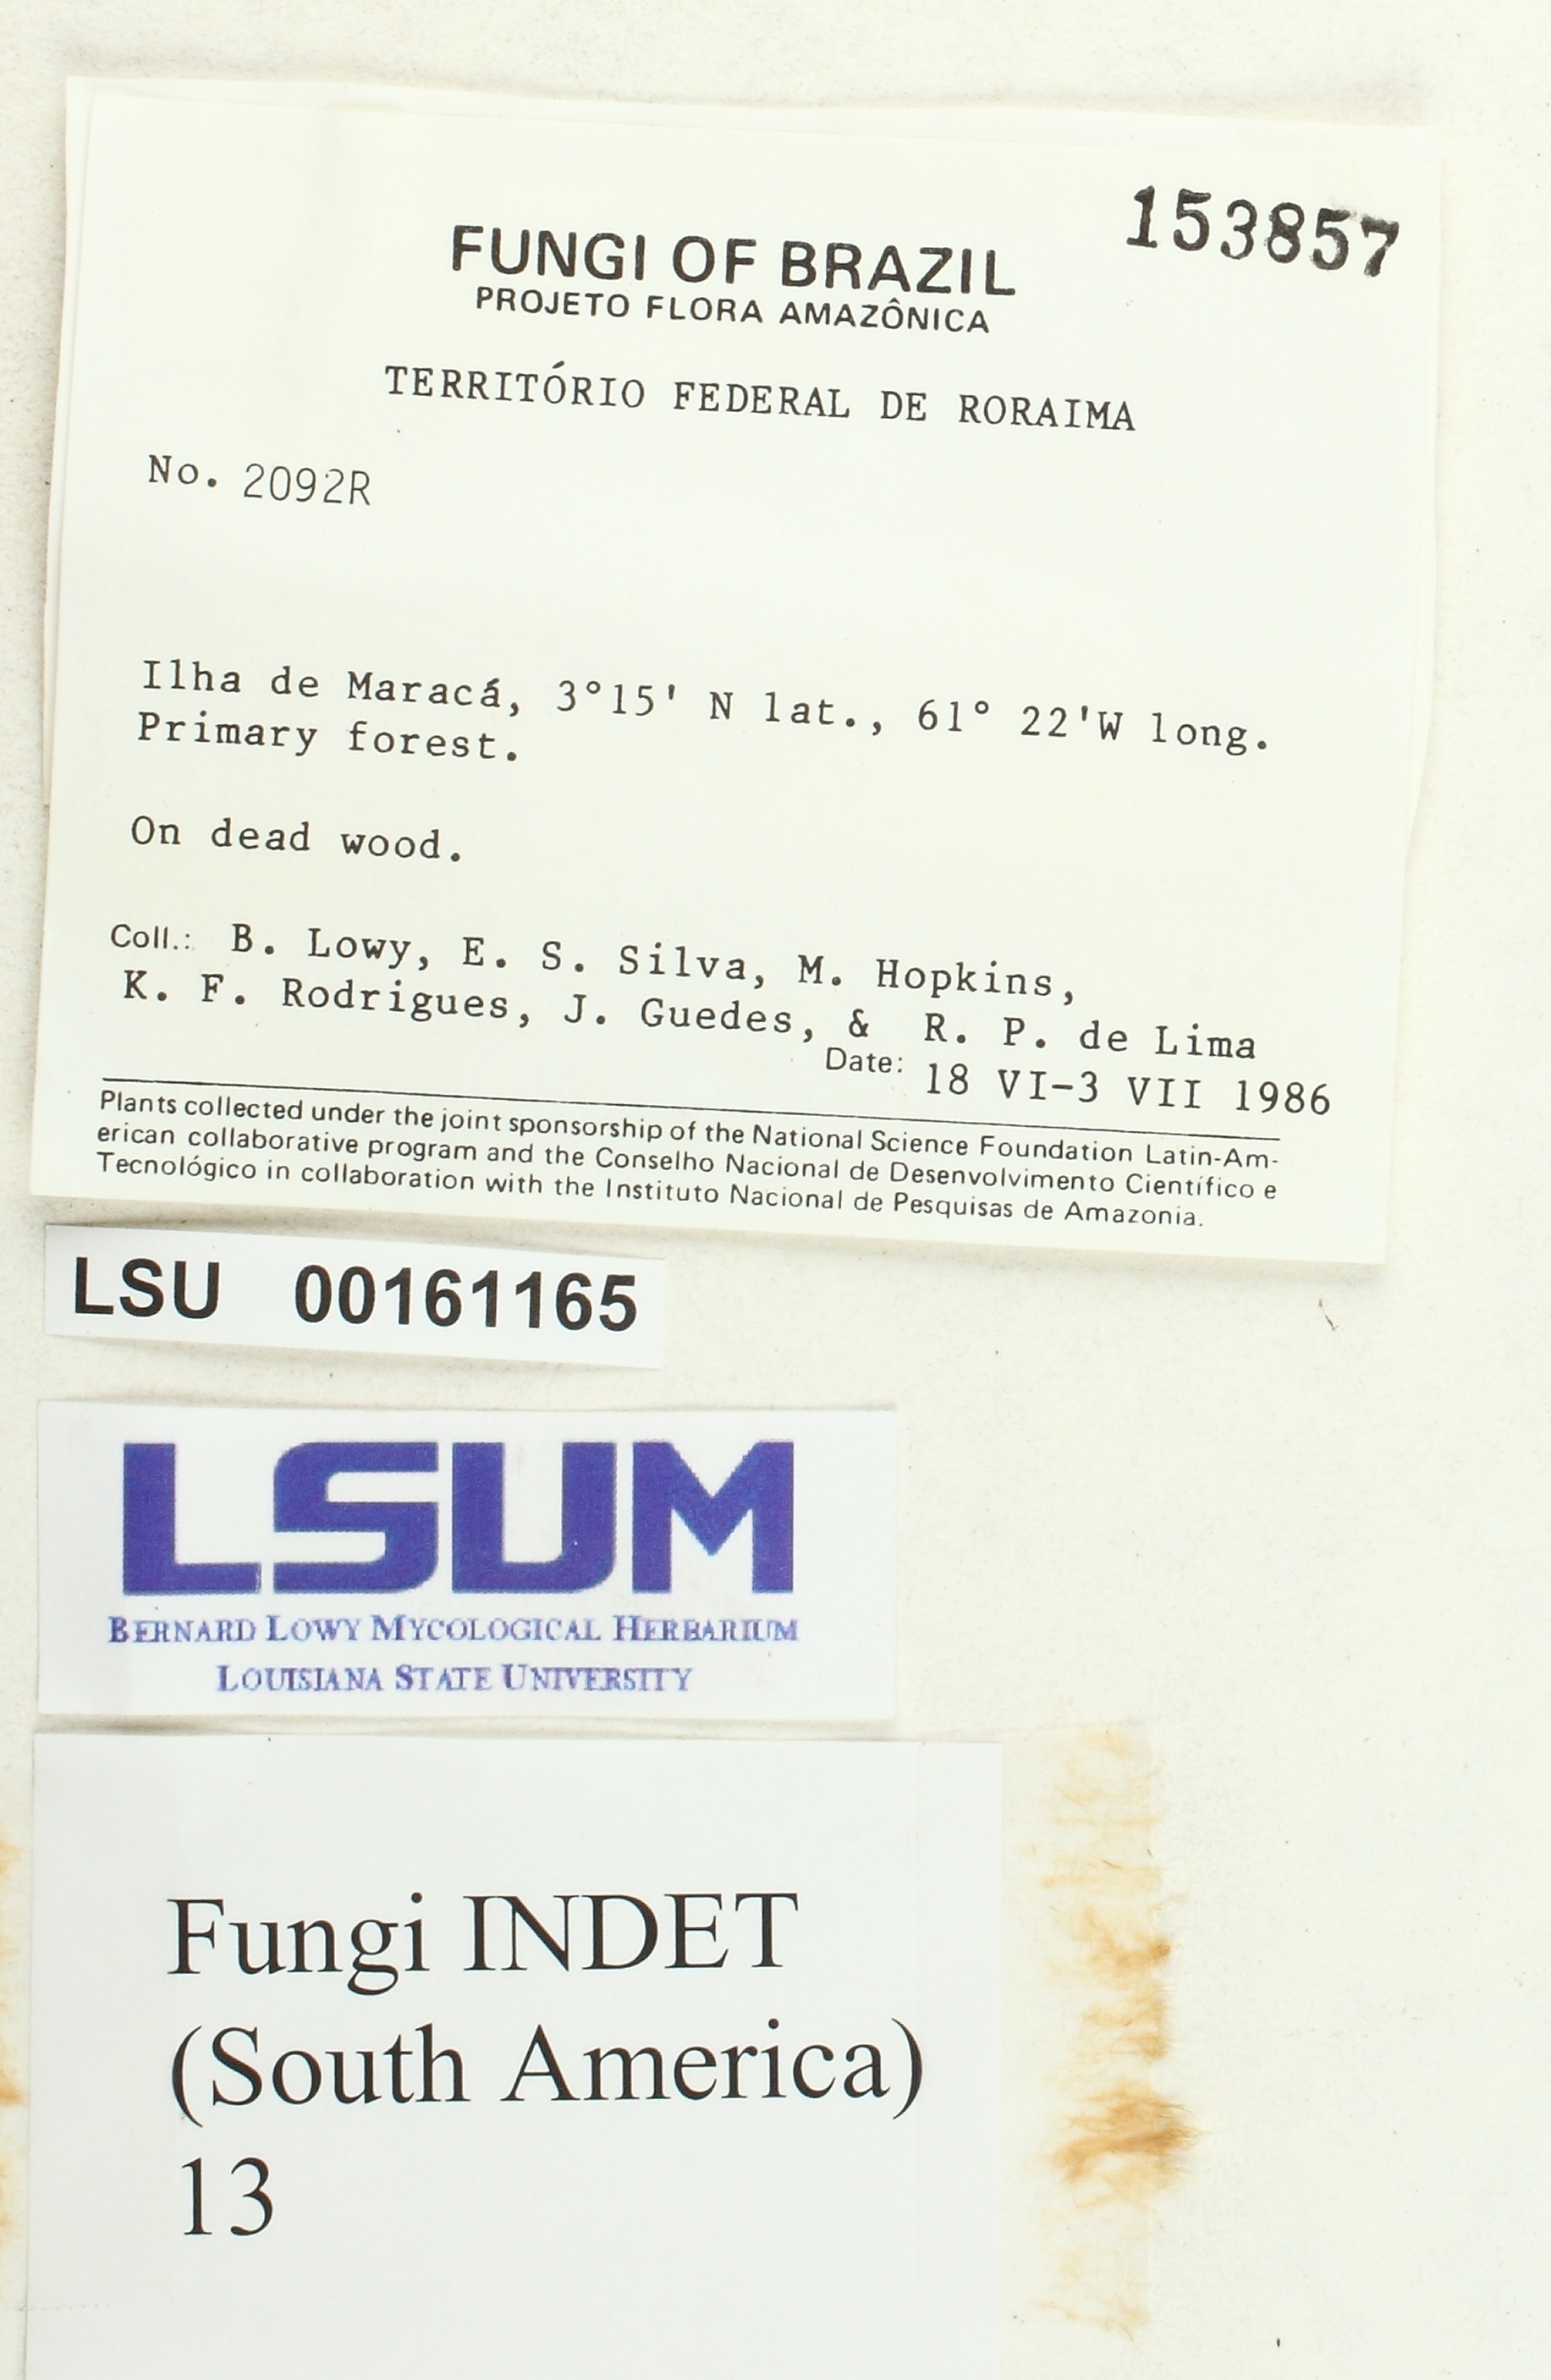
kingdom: Fungi
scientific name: Fungi
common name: Fungi
